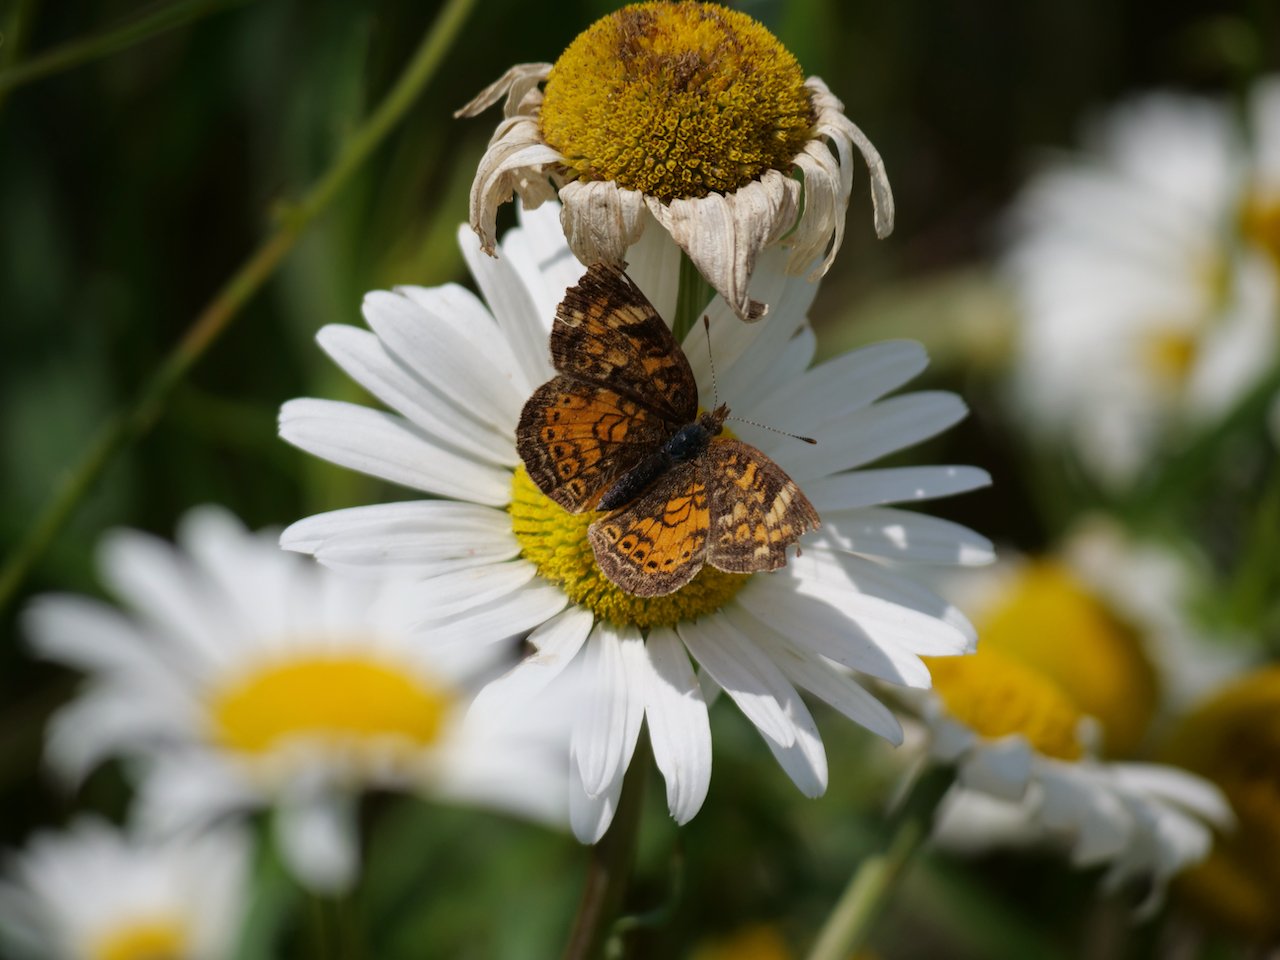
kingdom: Animalia
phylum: Arthropoda
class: Insecta
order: Lepidoptera
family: Nymphalidae
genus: Phyciodes
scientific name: Phyciodes tharos
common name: Northern Crescent
